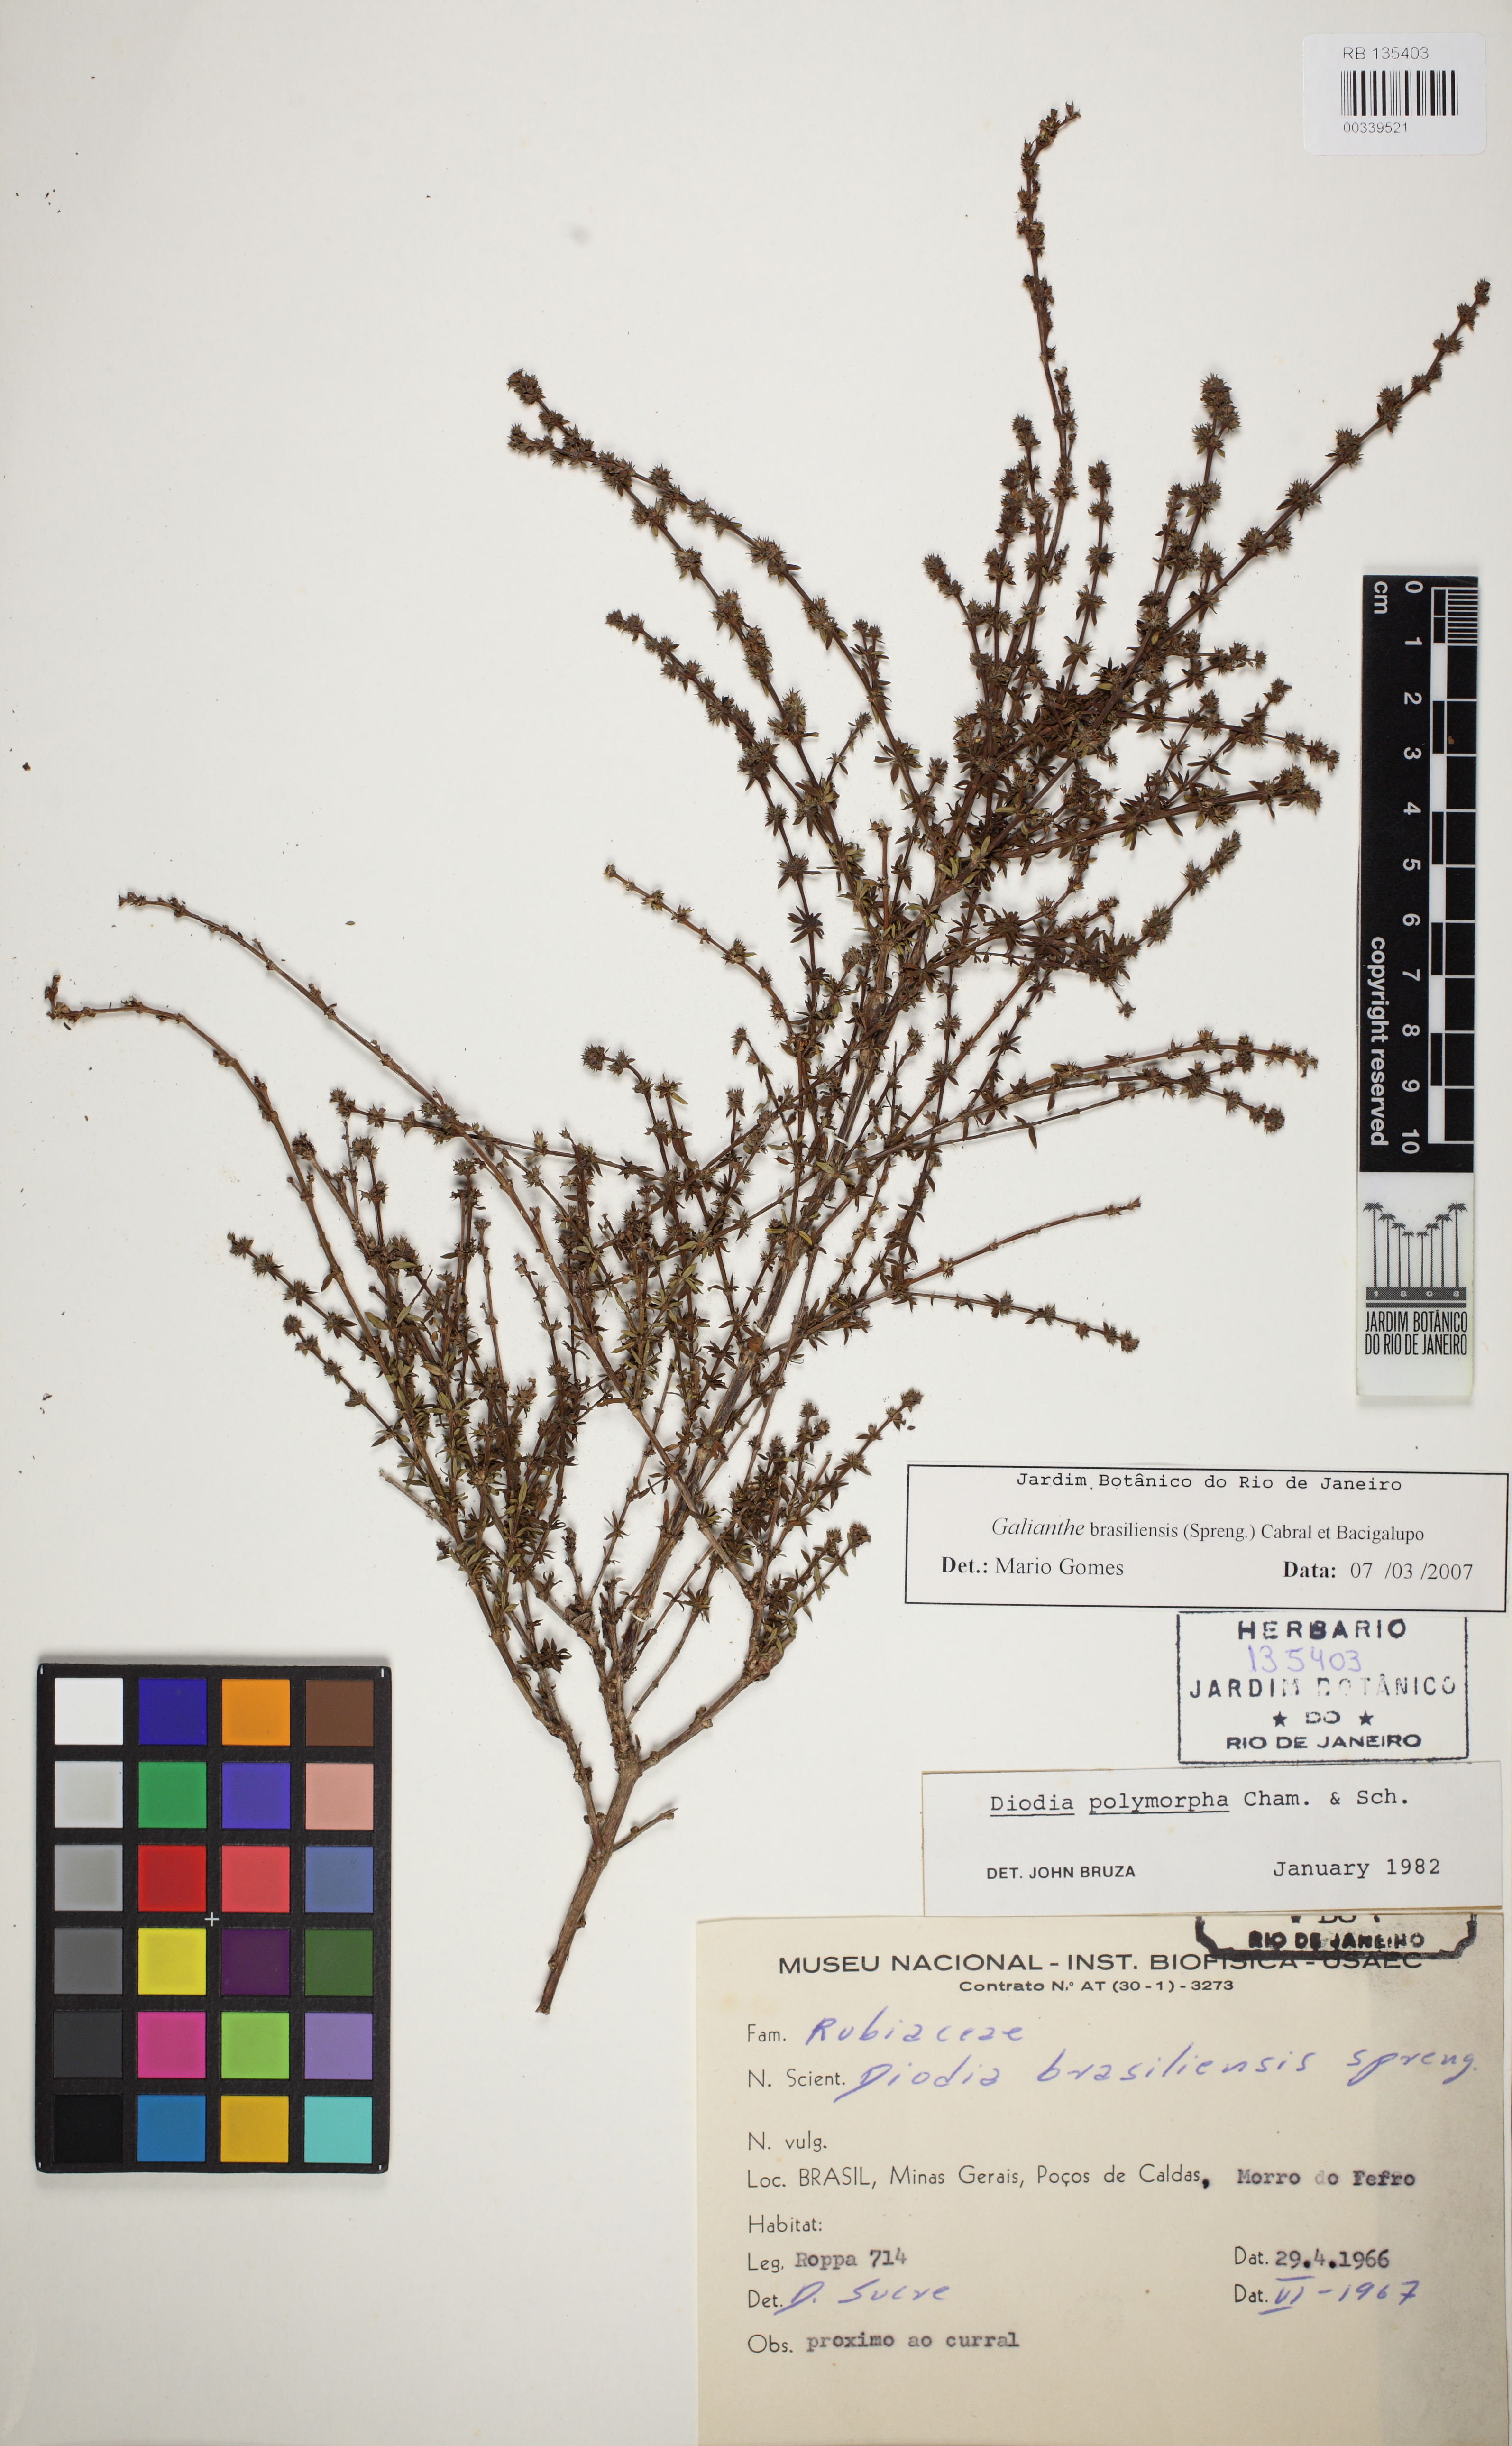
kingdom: Plantae
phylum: Tracheophyta
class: Magnoliopsida
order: Gentianales
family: Rubiaceae
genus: Galianthe
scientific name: Galianthe brasiliensis
